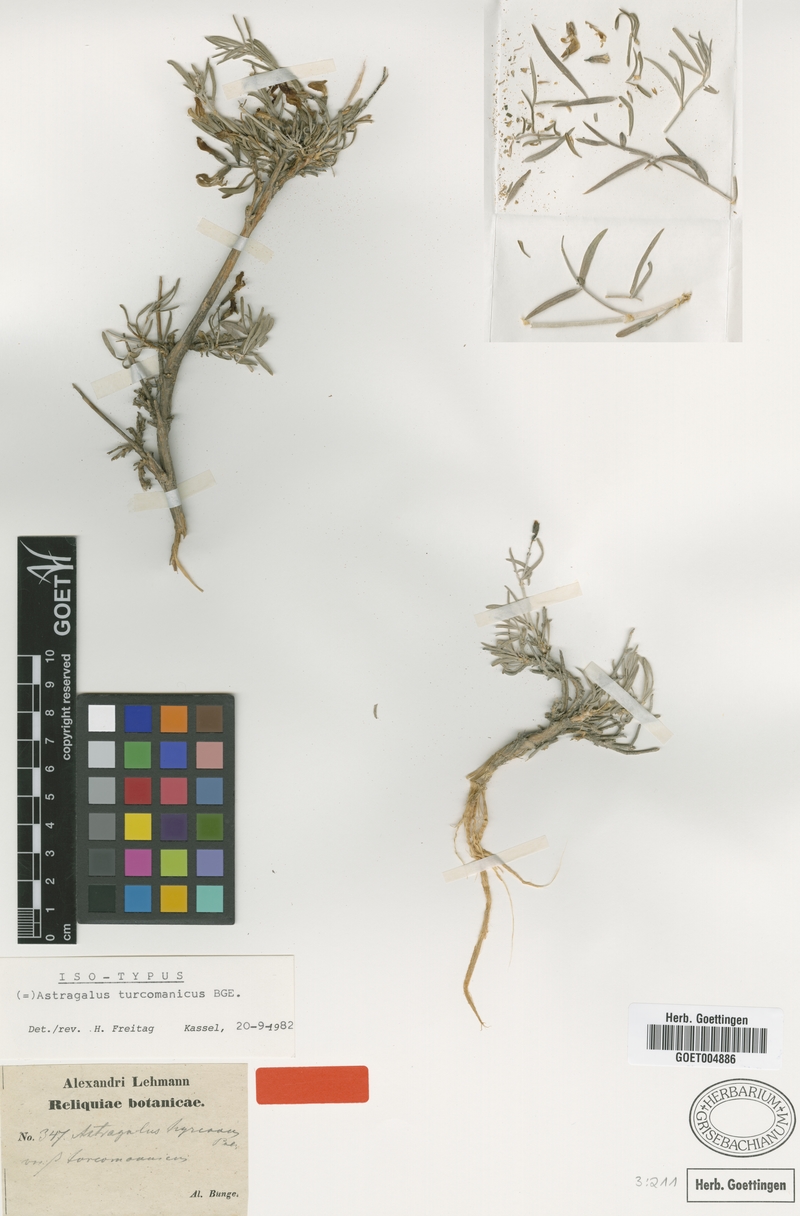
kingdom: Plantae
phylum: Tracheophyta
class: Magnoliopsida
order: Fabales
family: Fabaceae
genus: Astragalus
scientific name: Astragalus turcomanicus
